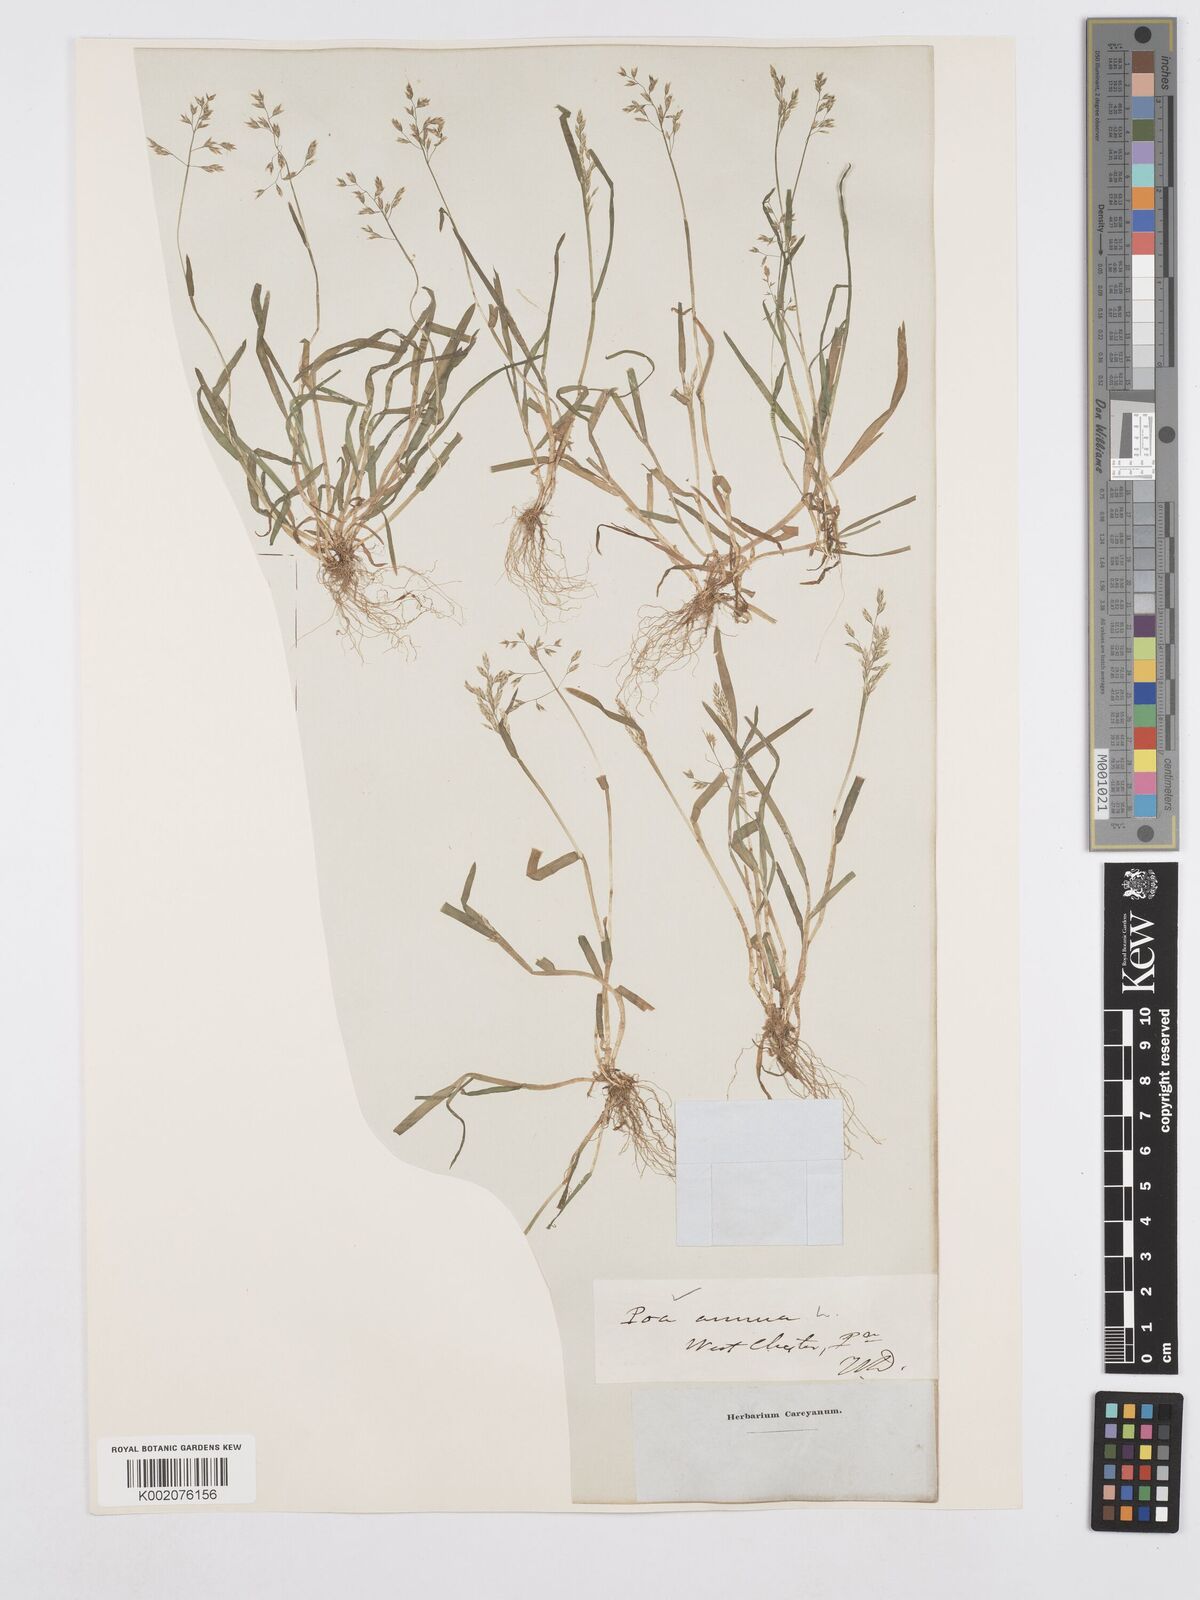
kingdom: Plantae
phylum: Tracheophyta
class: Liliopsida
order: Poales
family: Poaceae
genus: Poa
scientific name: Poa annua
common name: Annual bluegrass
